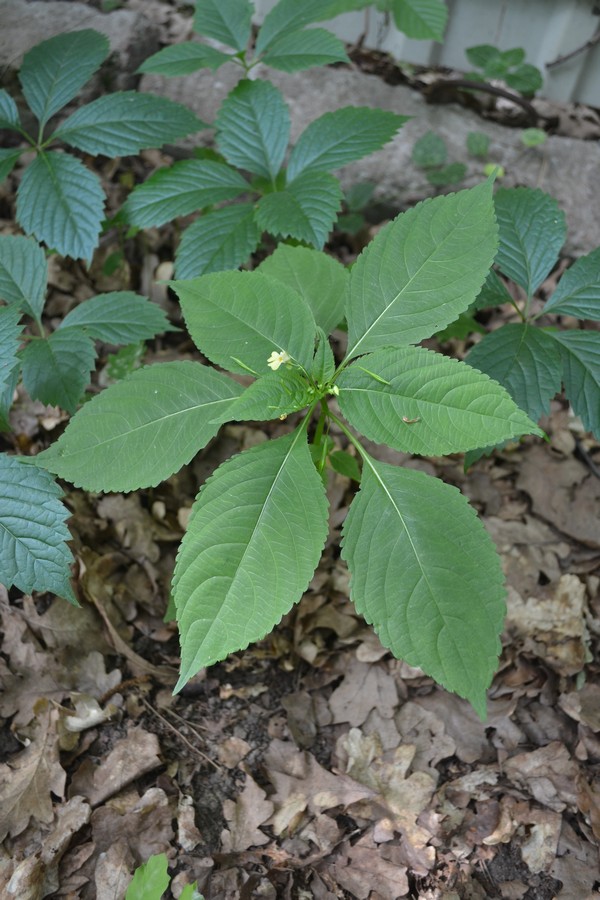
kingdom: Plantae
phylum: Tracheophyta
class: Magnoliopsida
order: Ericales
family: Balsaminaceae
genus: Impatiens
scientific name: Impatiens parviflora
